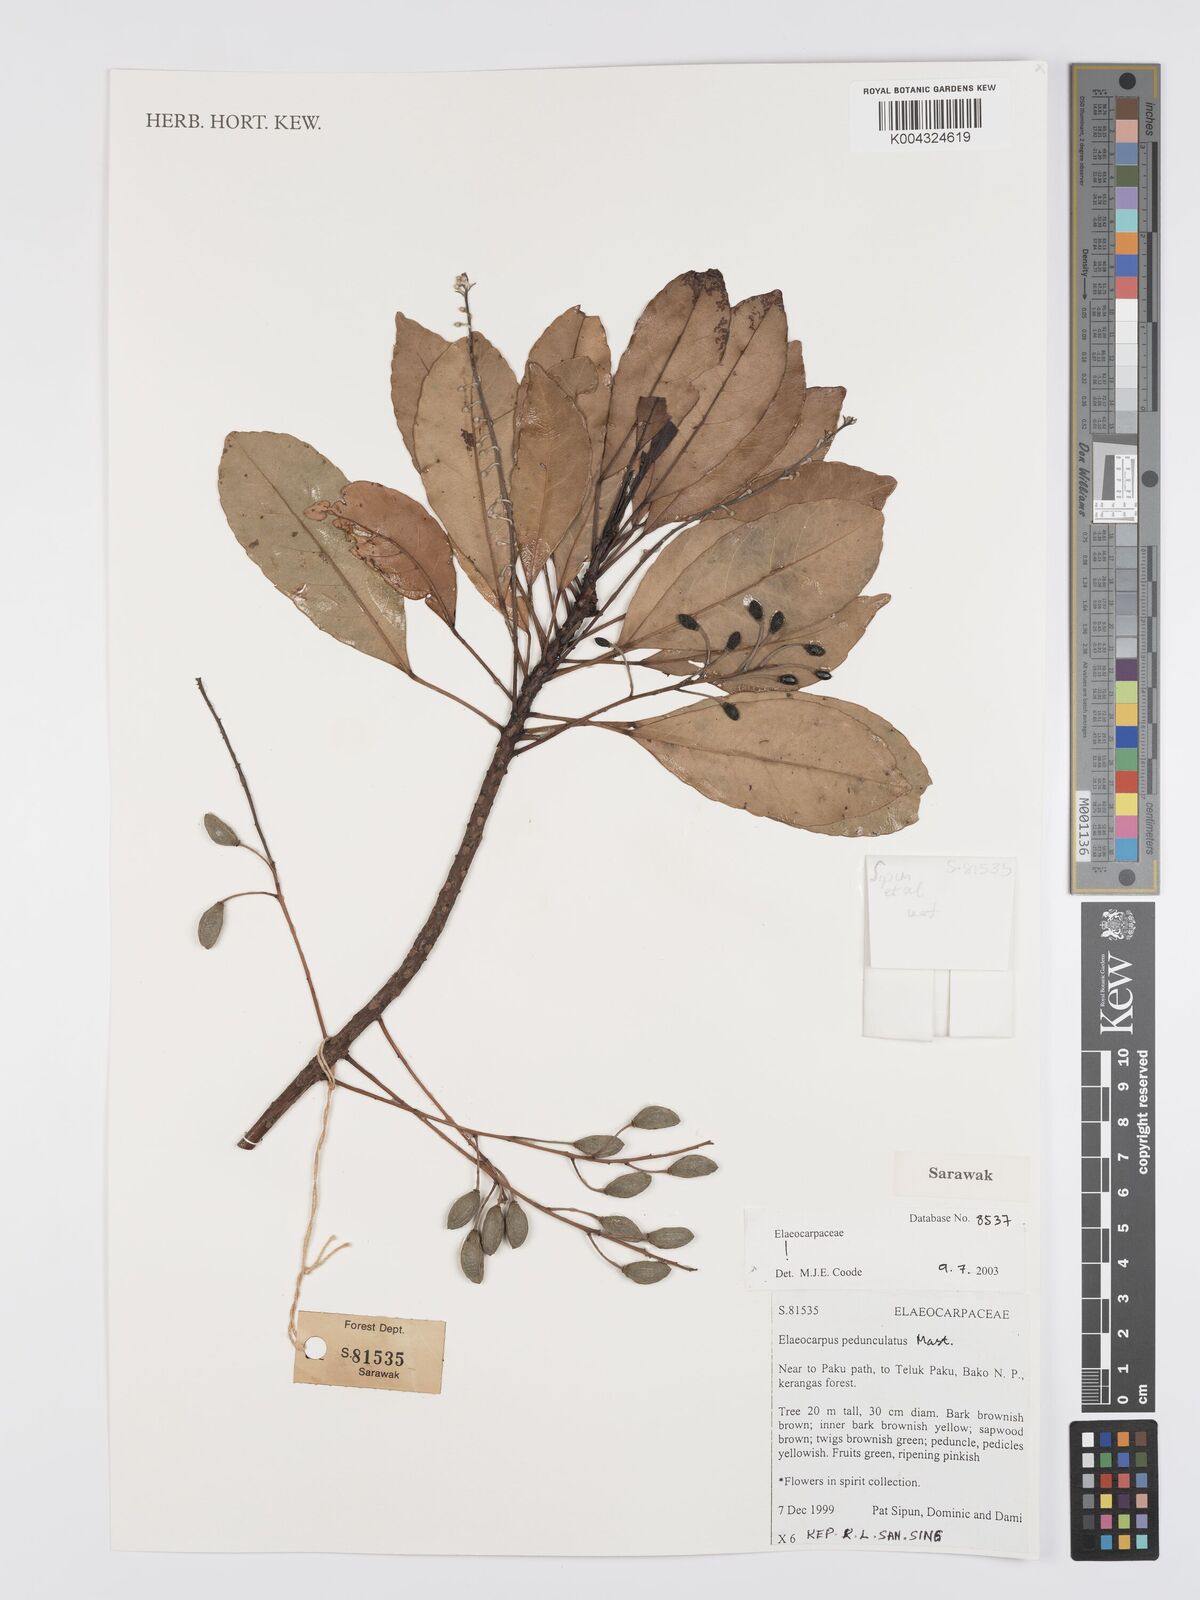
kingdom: Plantae
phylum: Tracheophyta
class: Magnoliopsida
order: Oxalidales
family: Elaeocarpaceae
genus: Elaeocarpus
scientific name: Elaeocarpus pedunculatus
